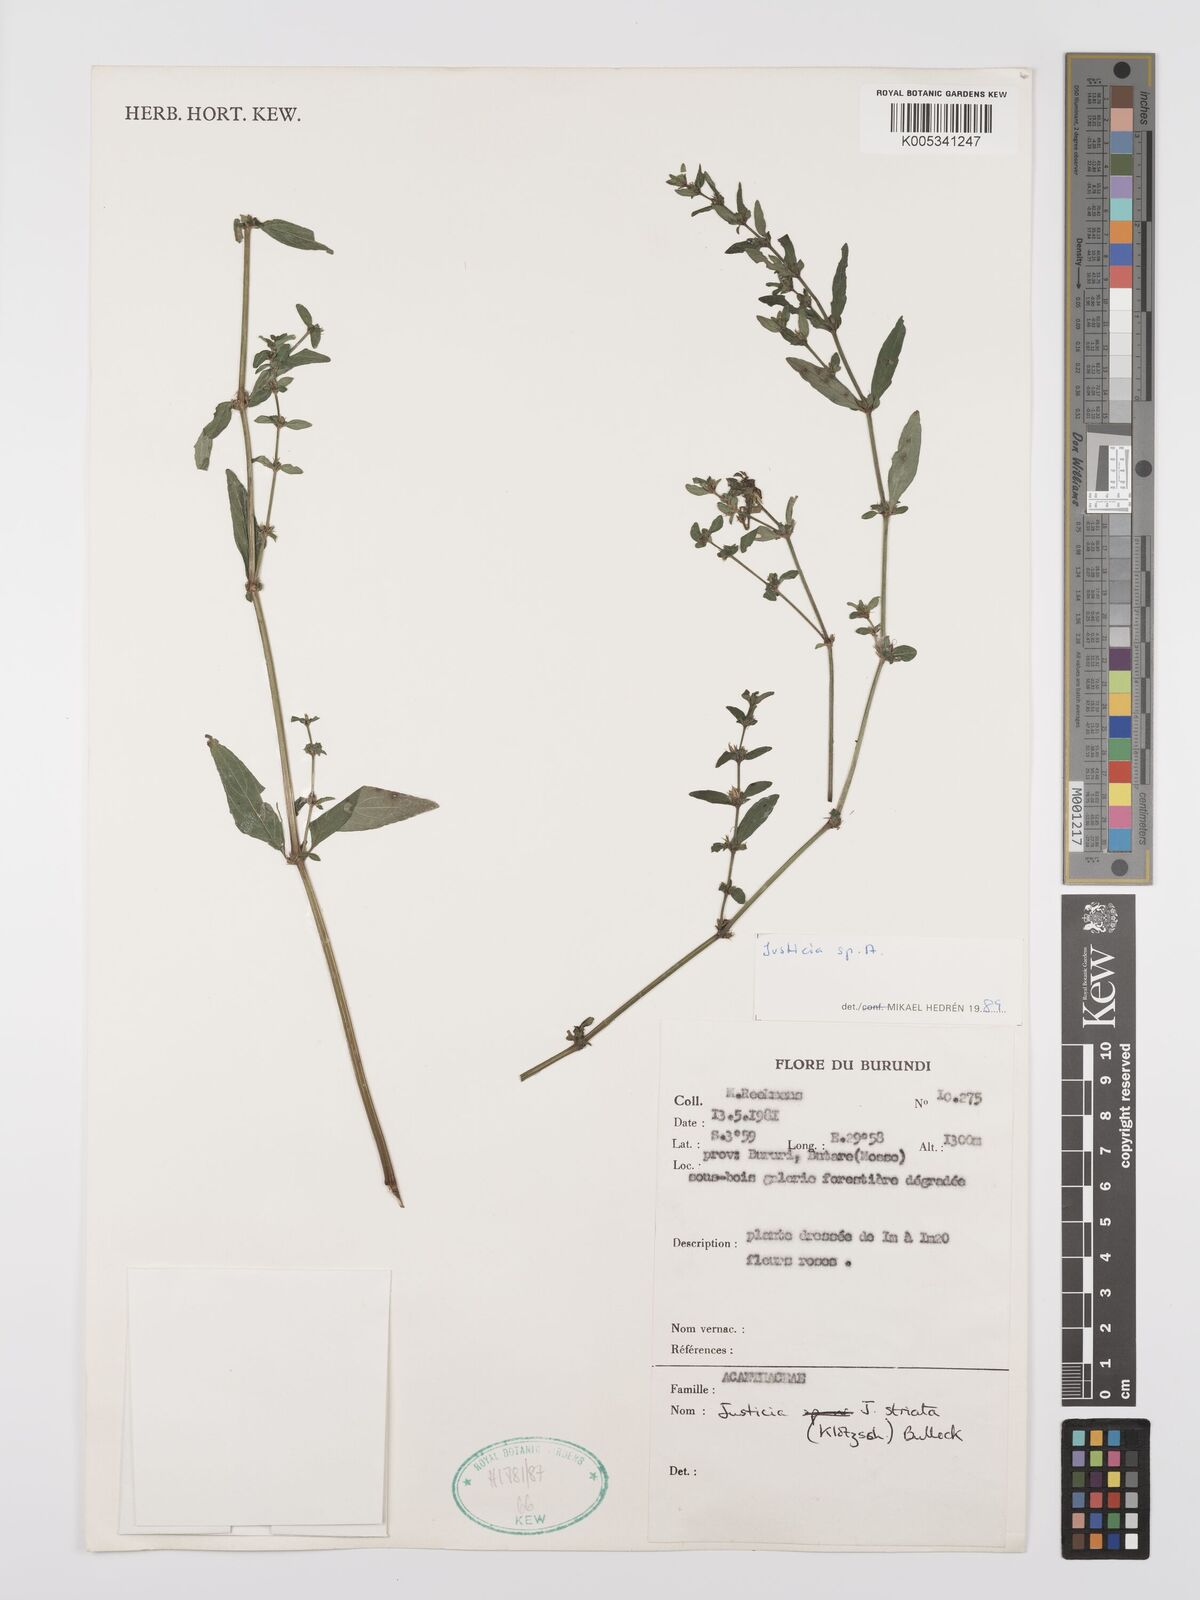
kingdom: Plantae
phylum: Tracheophyta
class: Magnoliopsida
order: Lamiales
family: Acanthaceae
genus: Justicia
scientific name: Justicia boaleri
